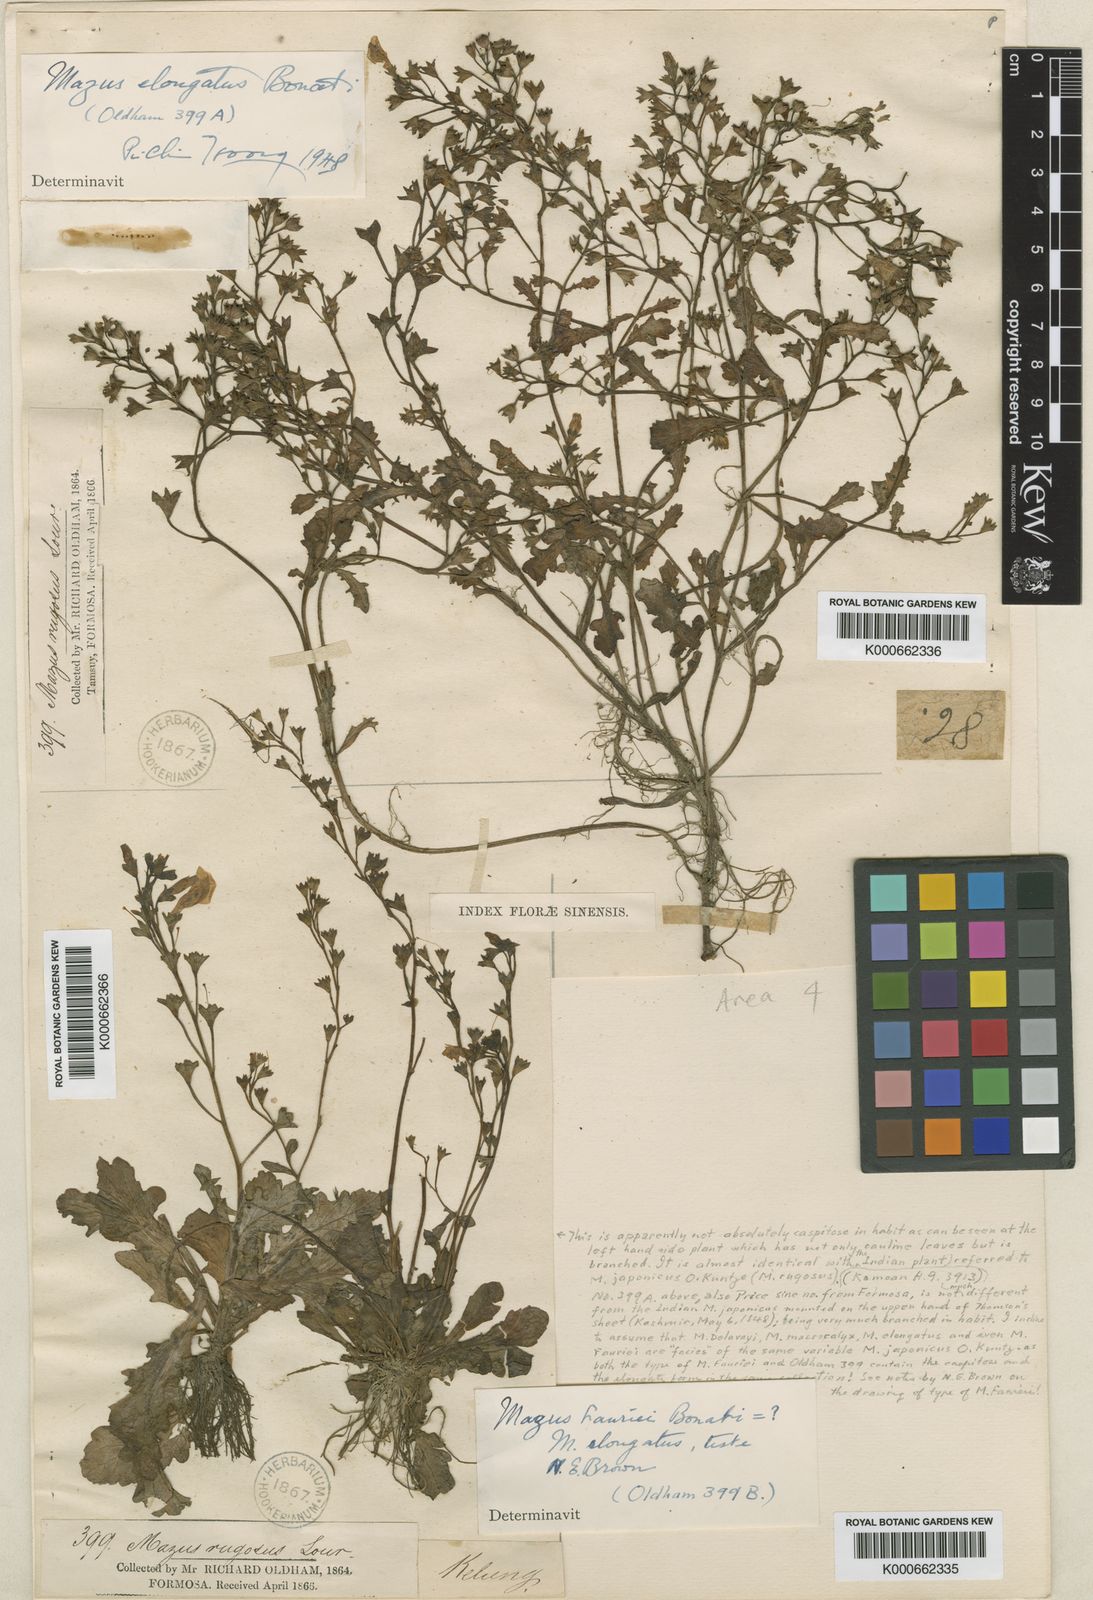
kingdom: Plantae
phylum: Tracheophyta
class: Magnoliopsida
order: Lamiales
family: Mazaceae
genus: Mazus
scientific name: Mazus elongatus
